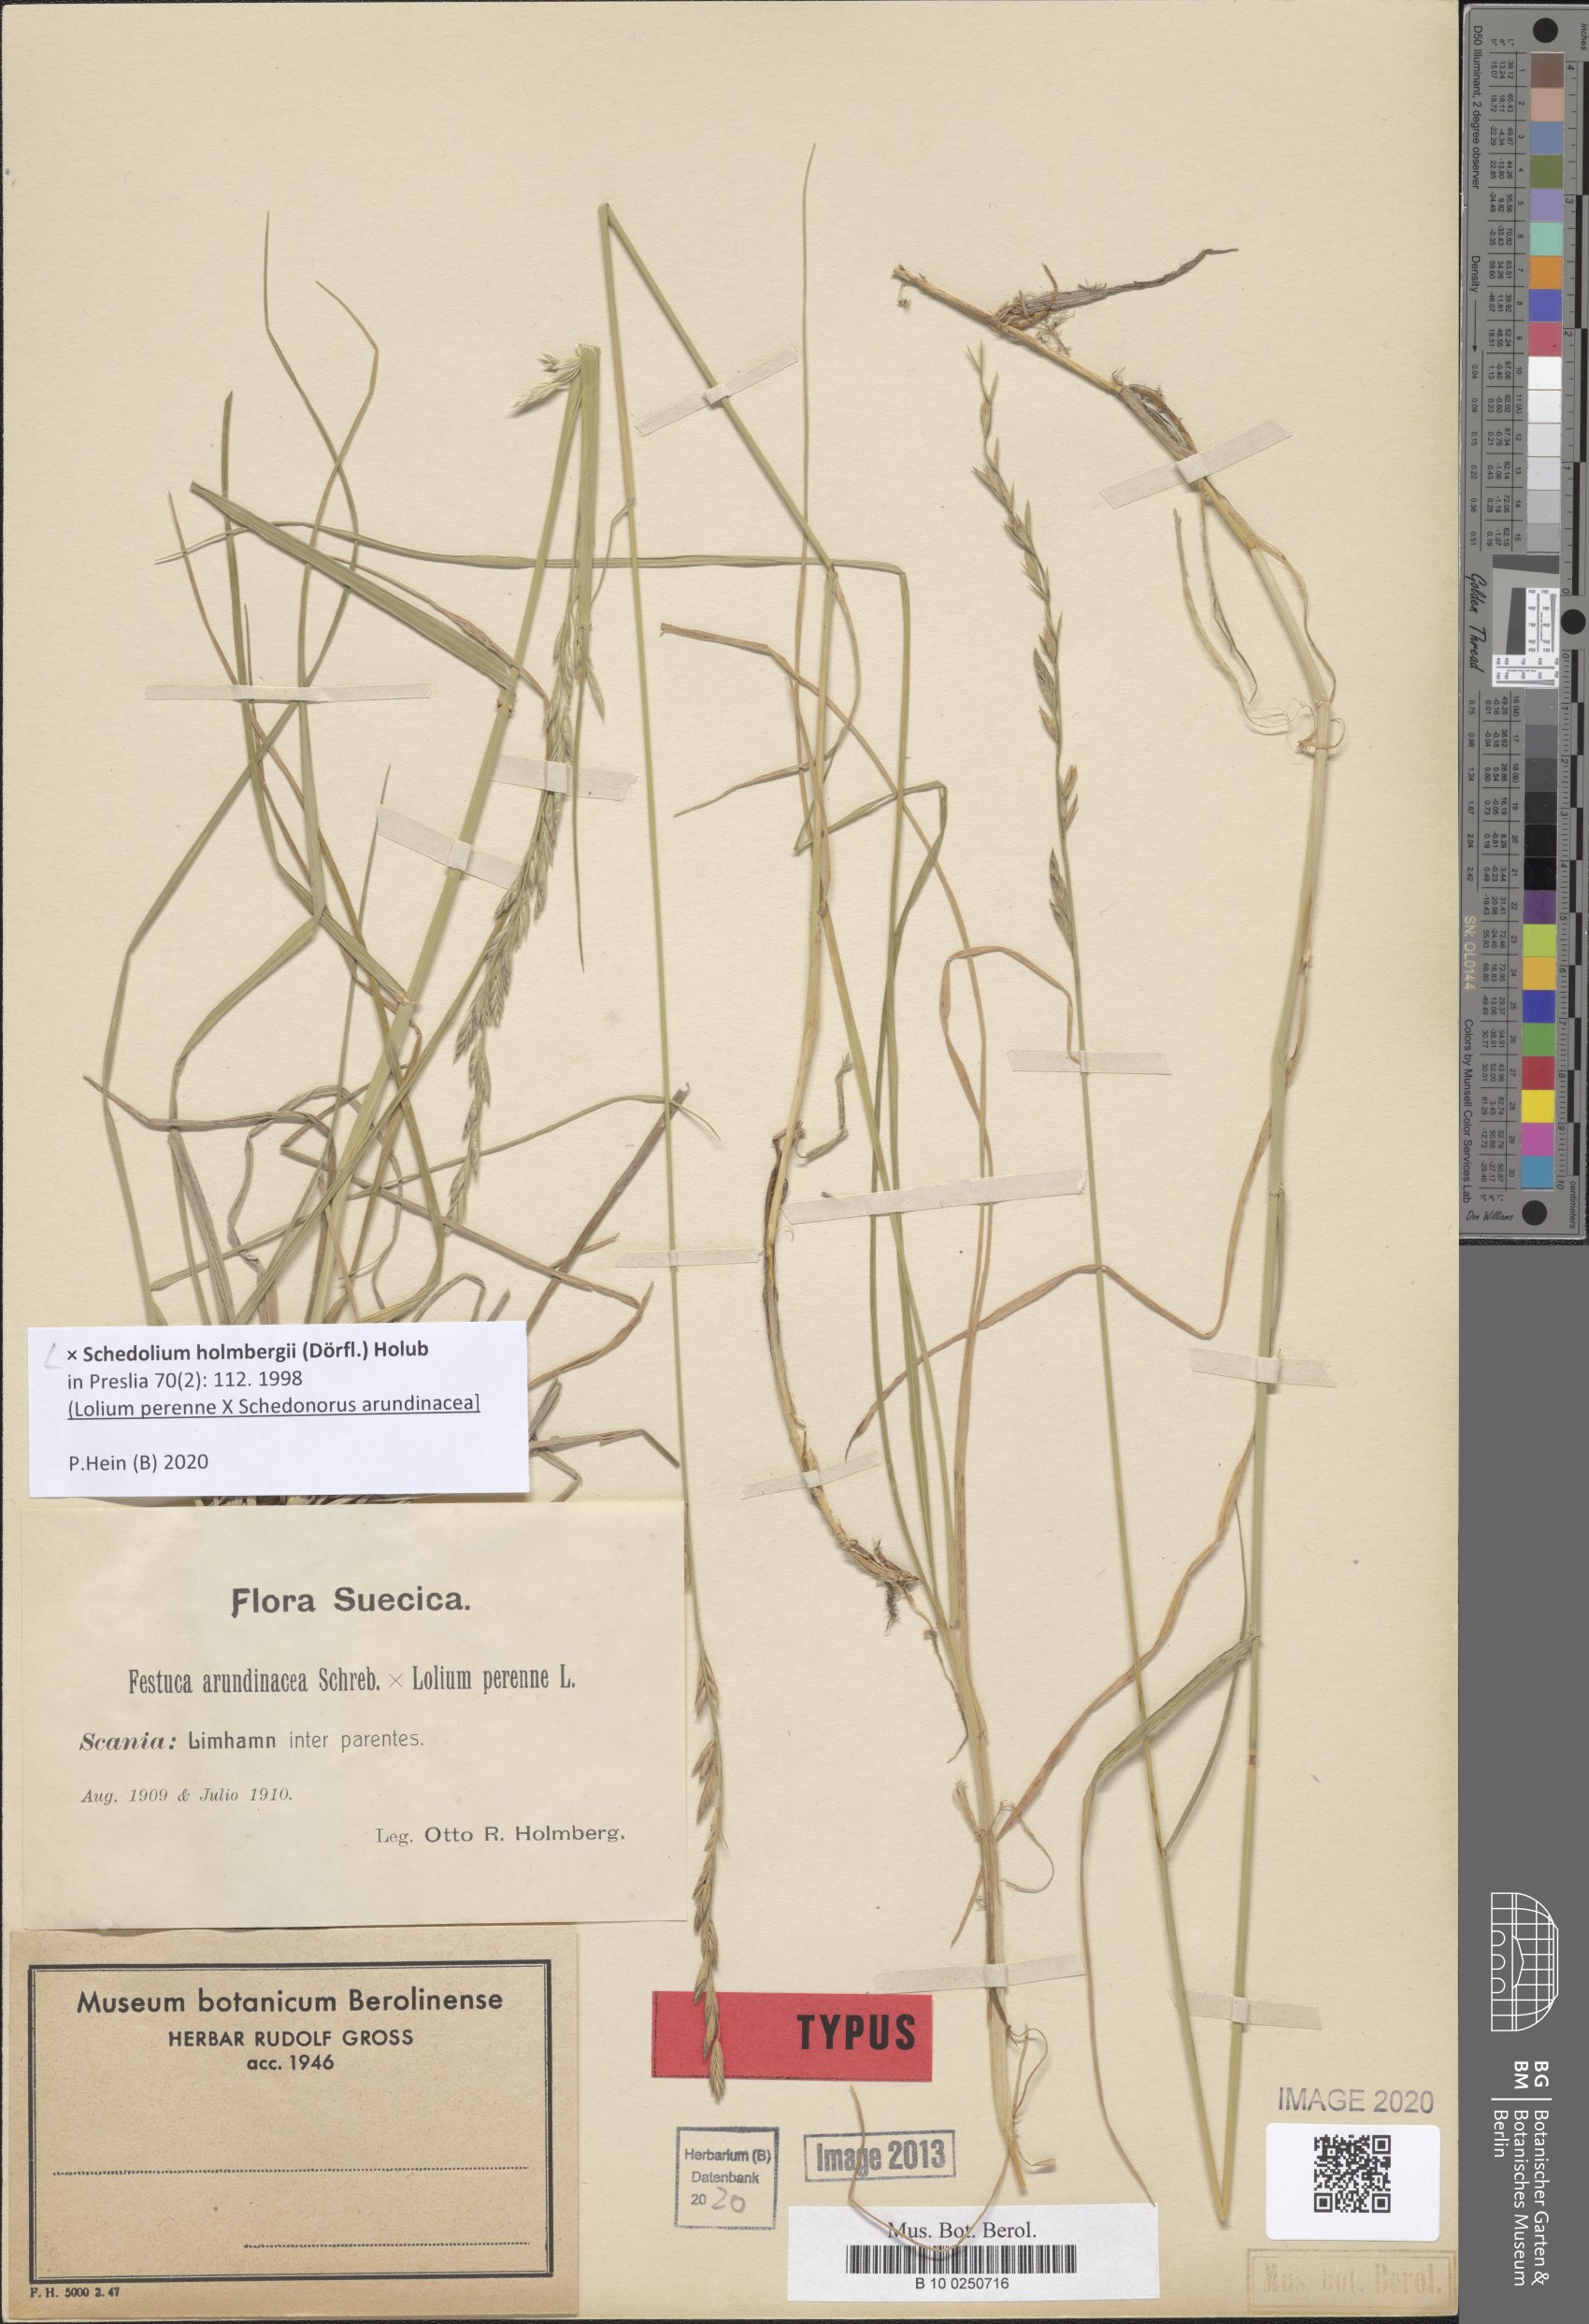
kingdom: Plantae
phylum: Tracheophyta
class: Liliopsida
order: Poales
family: Poaceae
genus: Lolium
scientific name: Lolium holmbergii
